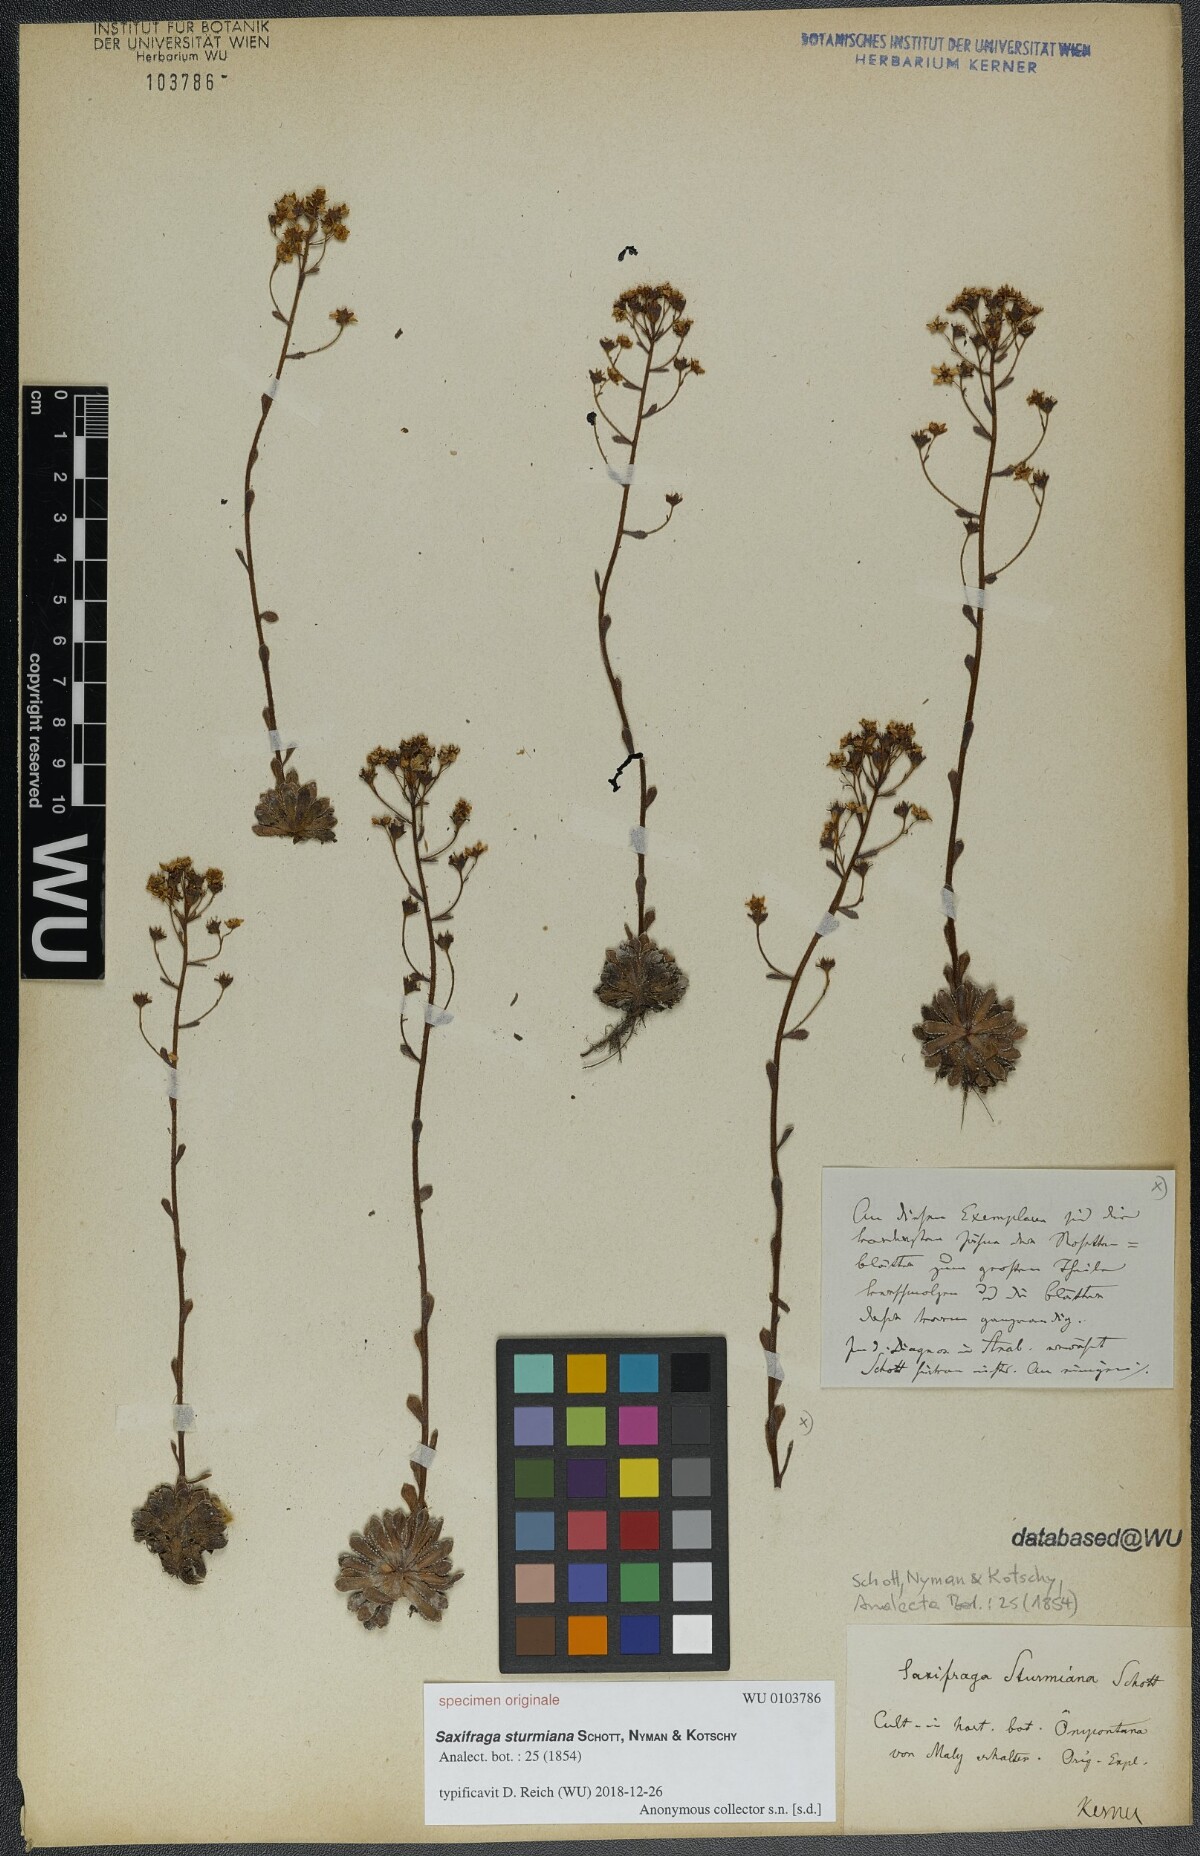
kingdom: Plantae
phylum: Tracheophyta
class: Magnoliopsida
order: Saxifragales
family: Saxifragaceae
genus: Saxifraga
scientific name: Saxifraga paniculata
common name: Livelong saxifrage
